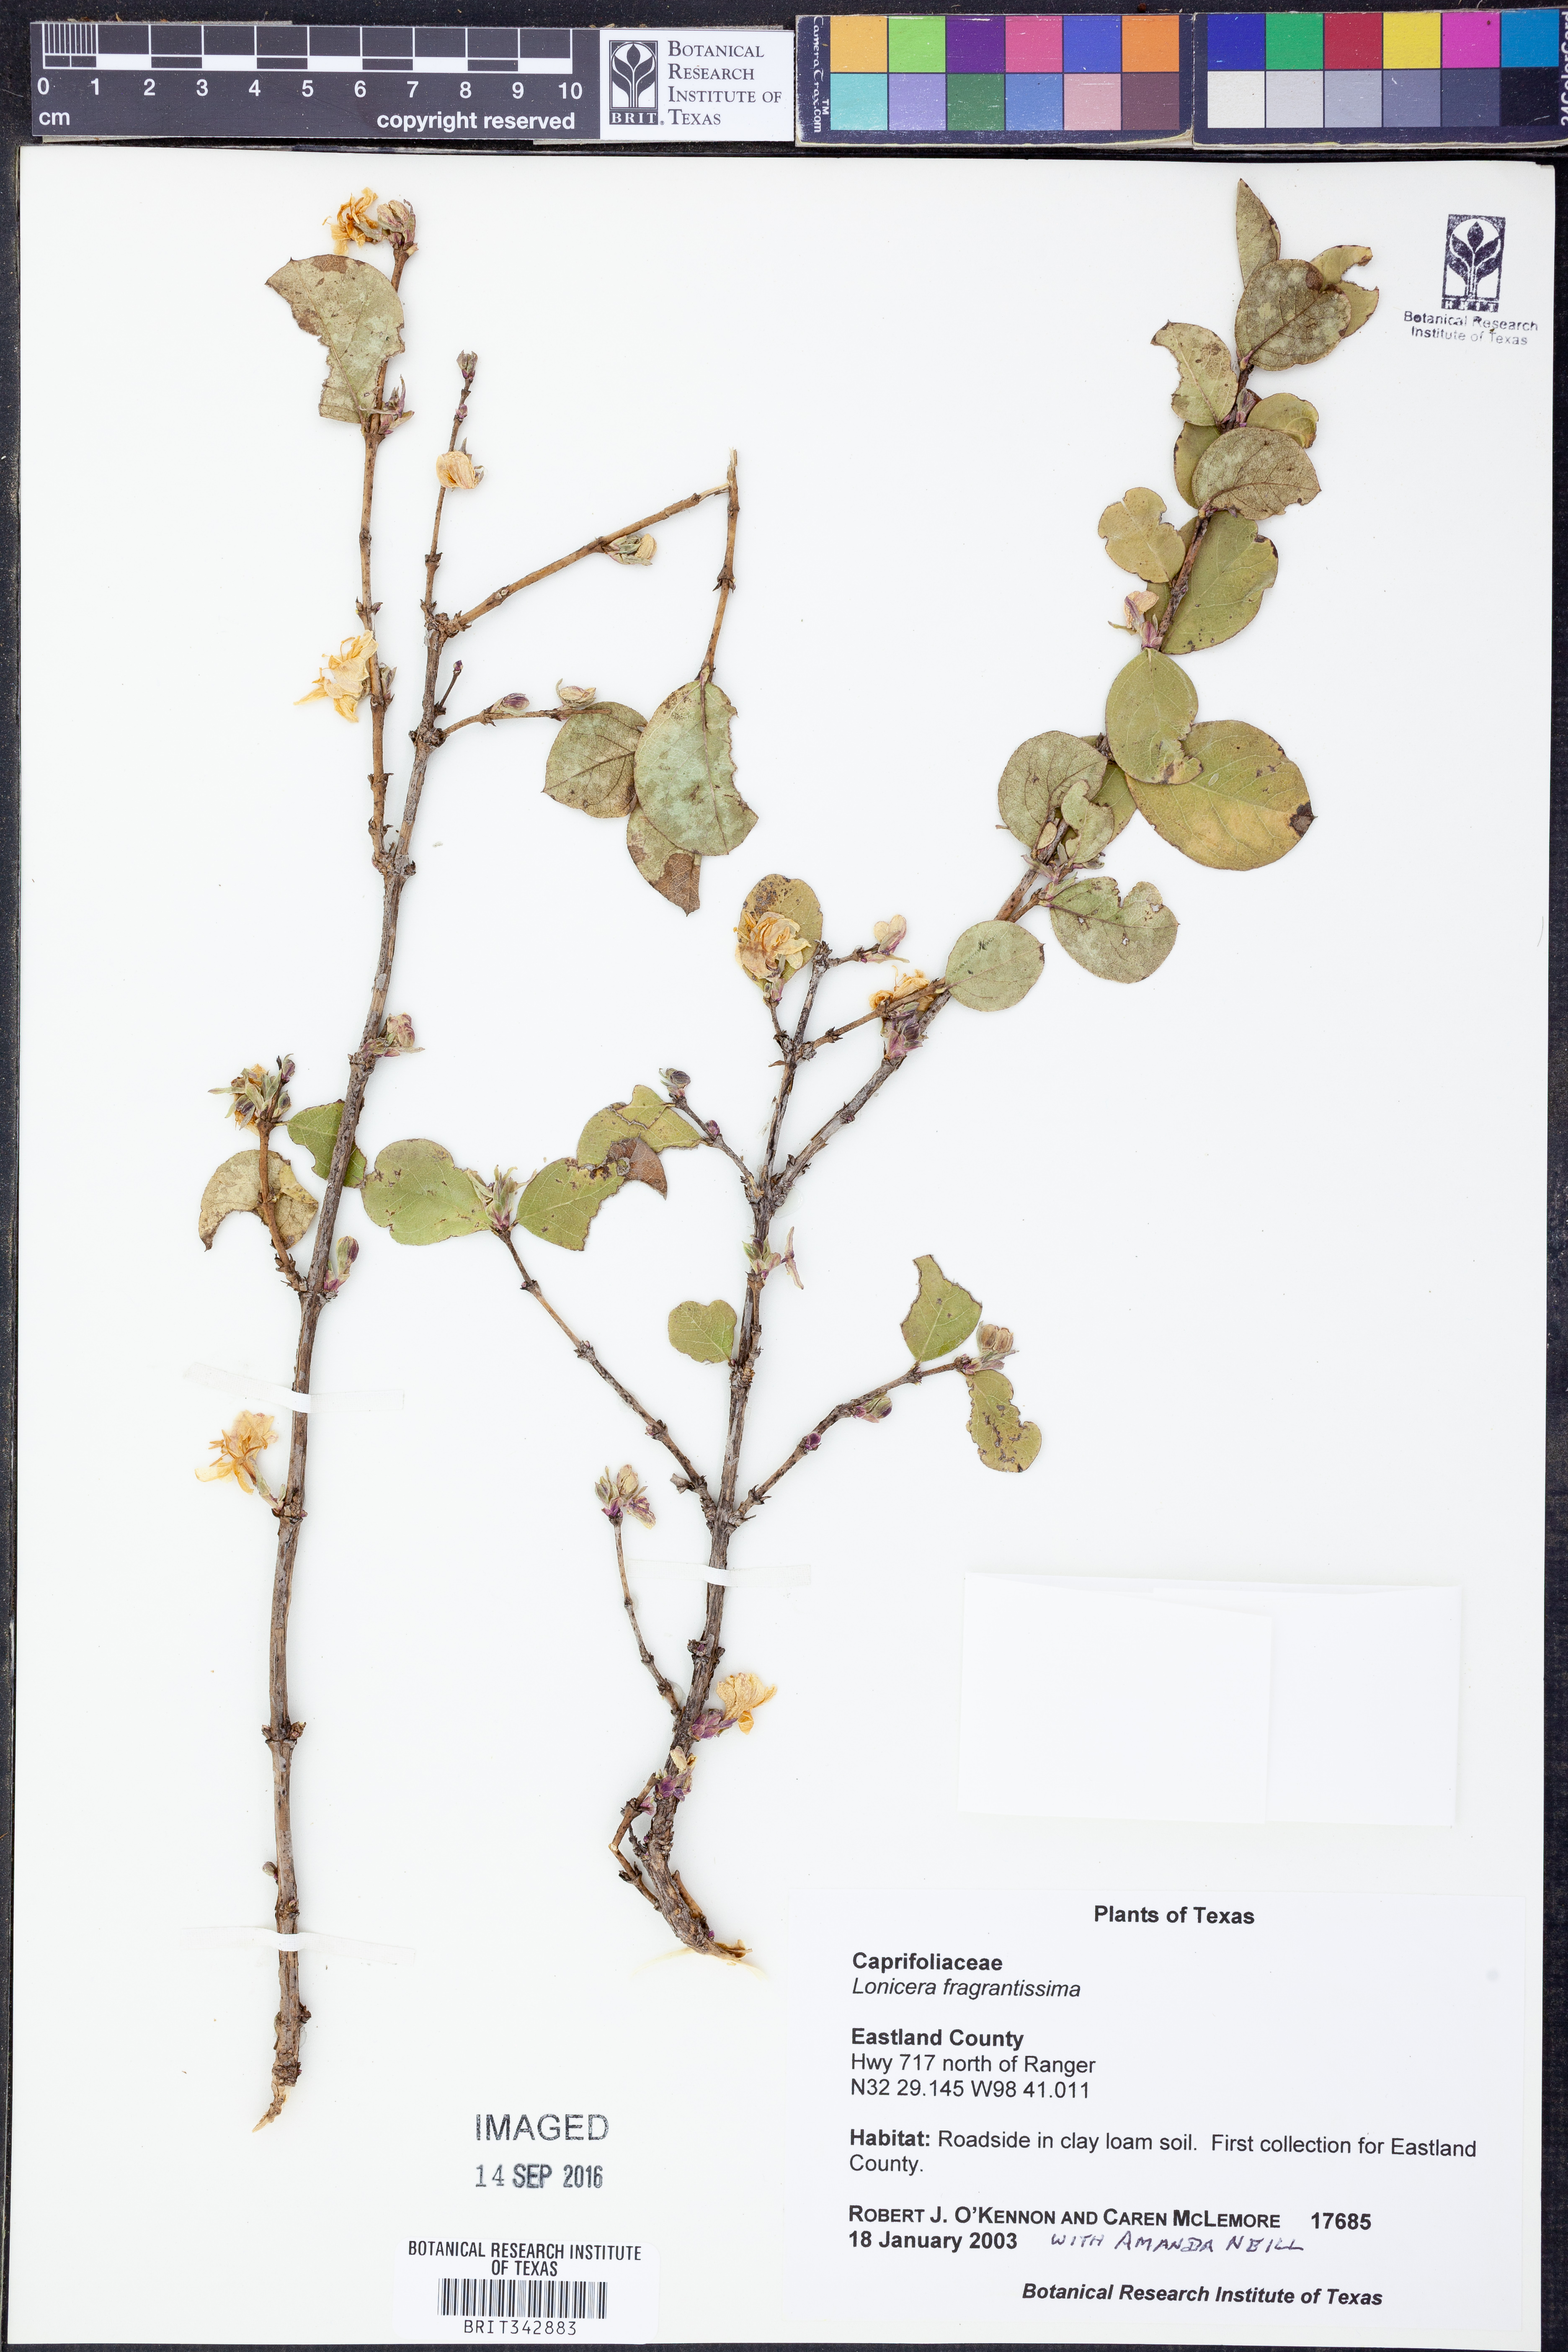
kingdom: Plantae
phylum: Tracheophyta
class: Magnoliopsida
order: Dipsacales
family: Caprifoliaceae
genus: Lonicera
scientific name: Lonicera fragrantissima
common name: Fragrant honeysuckle
